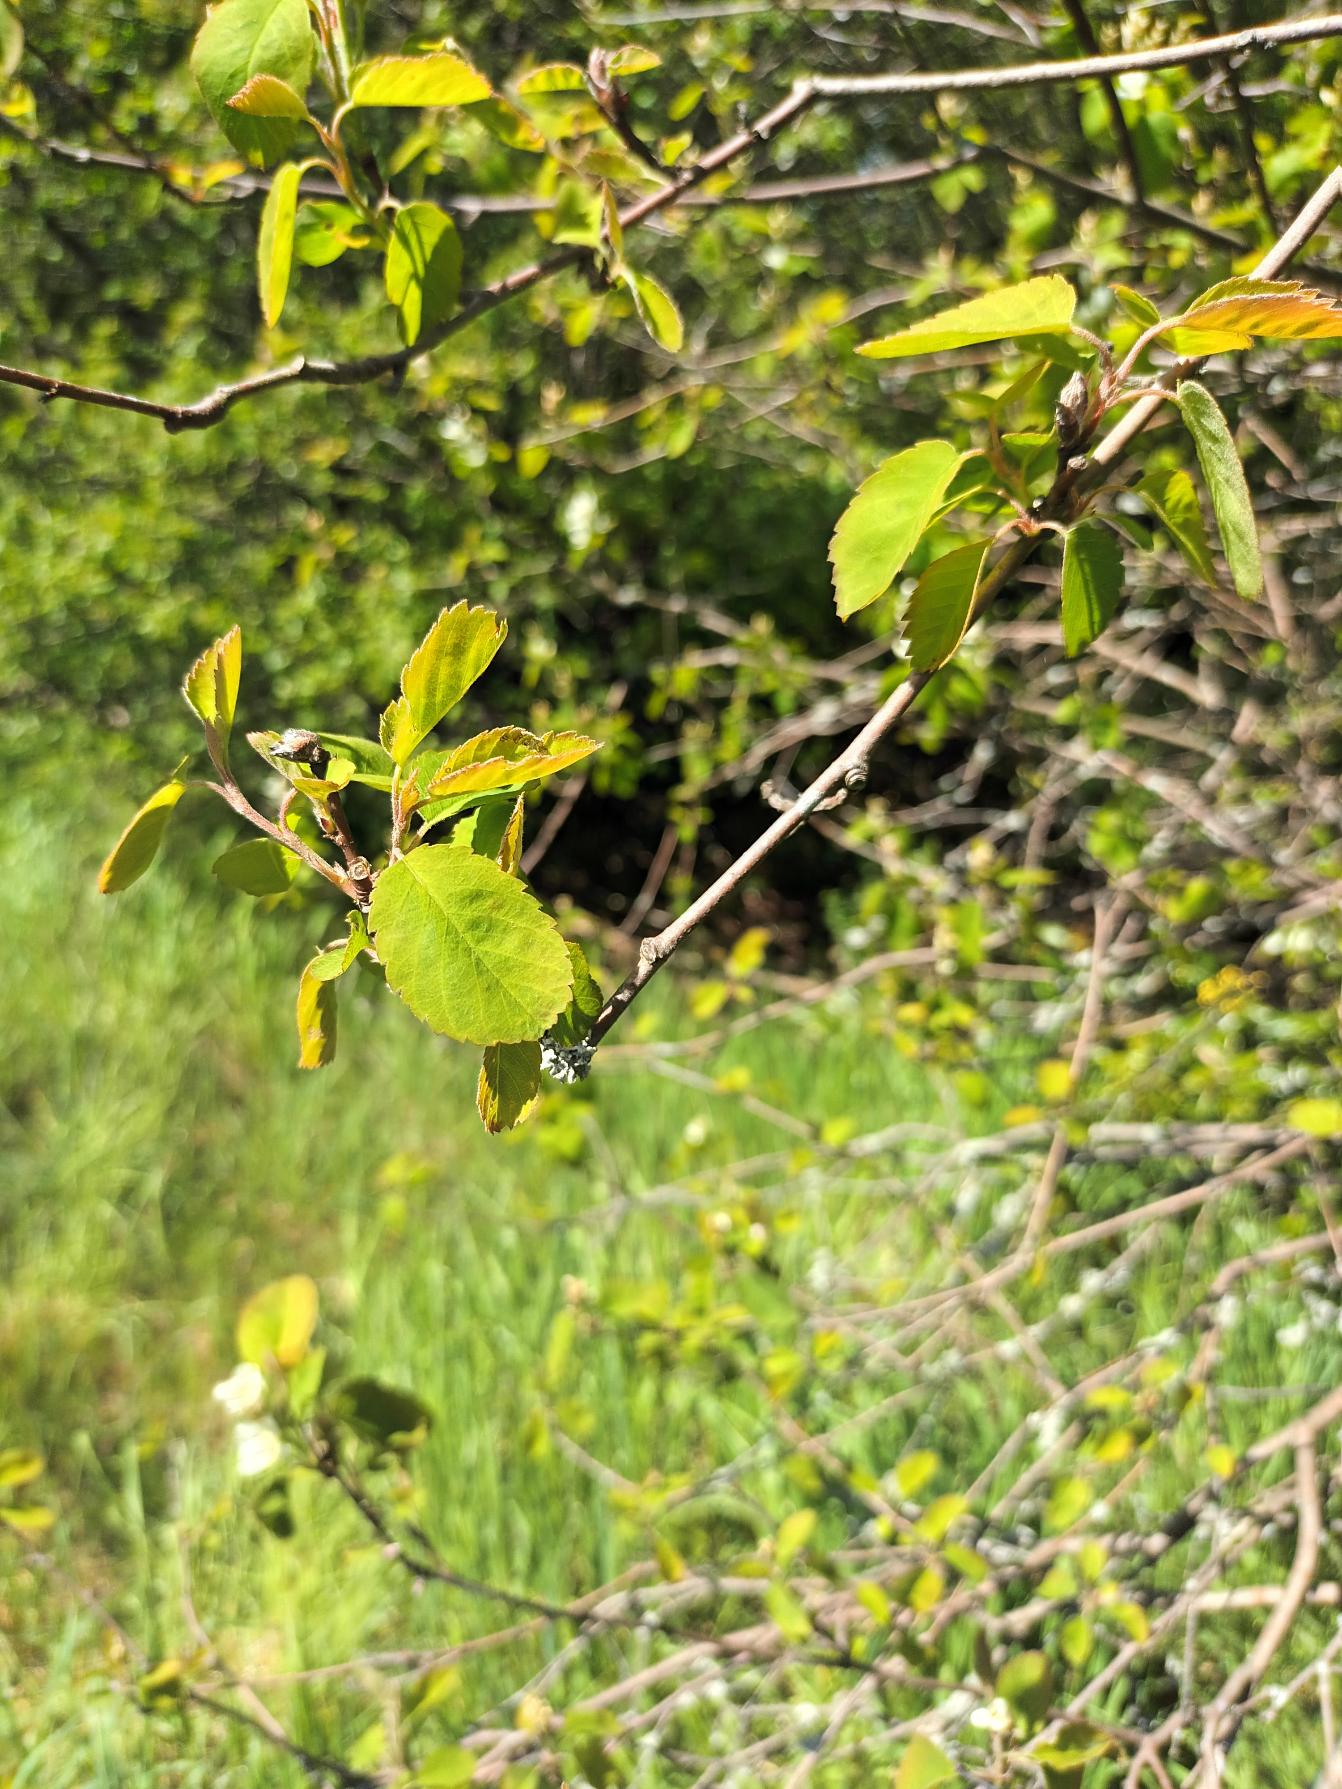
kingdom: Plantae
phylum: Tracheophyta
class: Magnoliopsida
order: Rosales
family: Rosaceae
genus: Amelanchier
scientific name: Amelanchier alnifolia
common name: Ellebladet bærmispel
